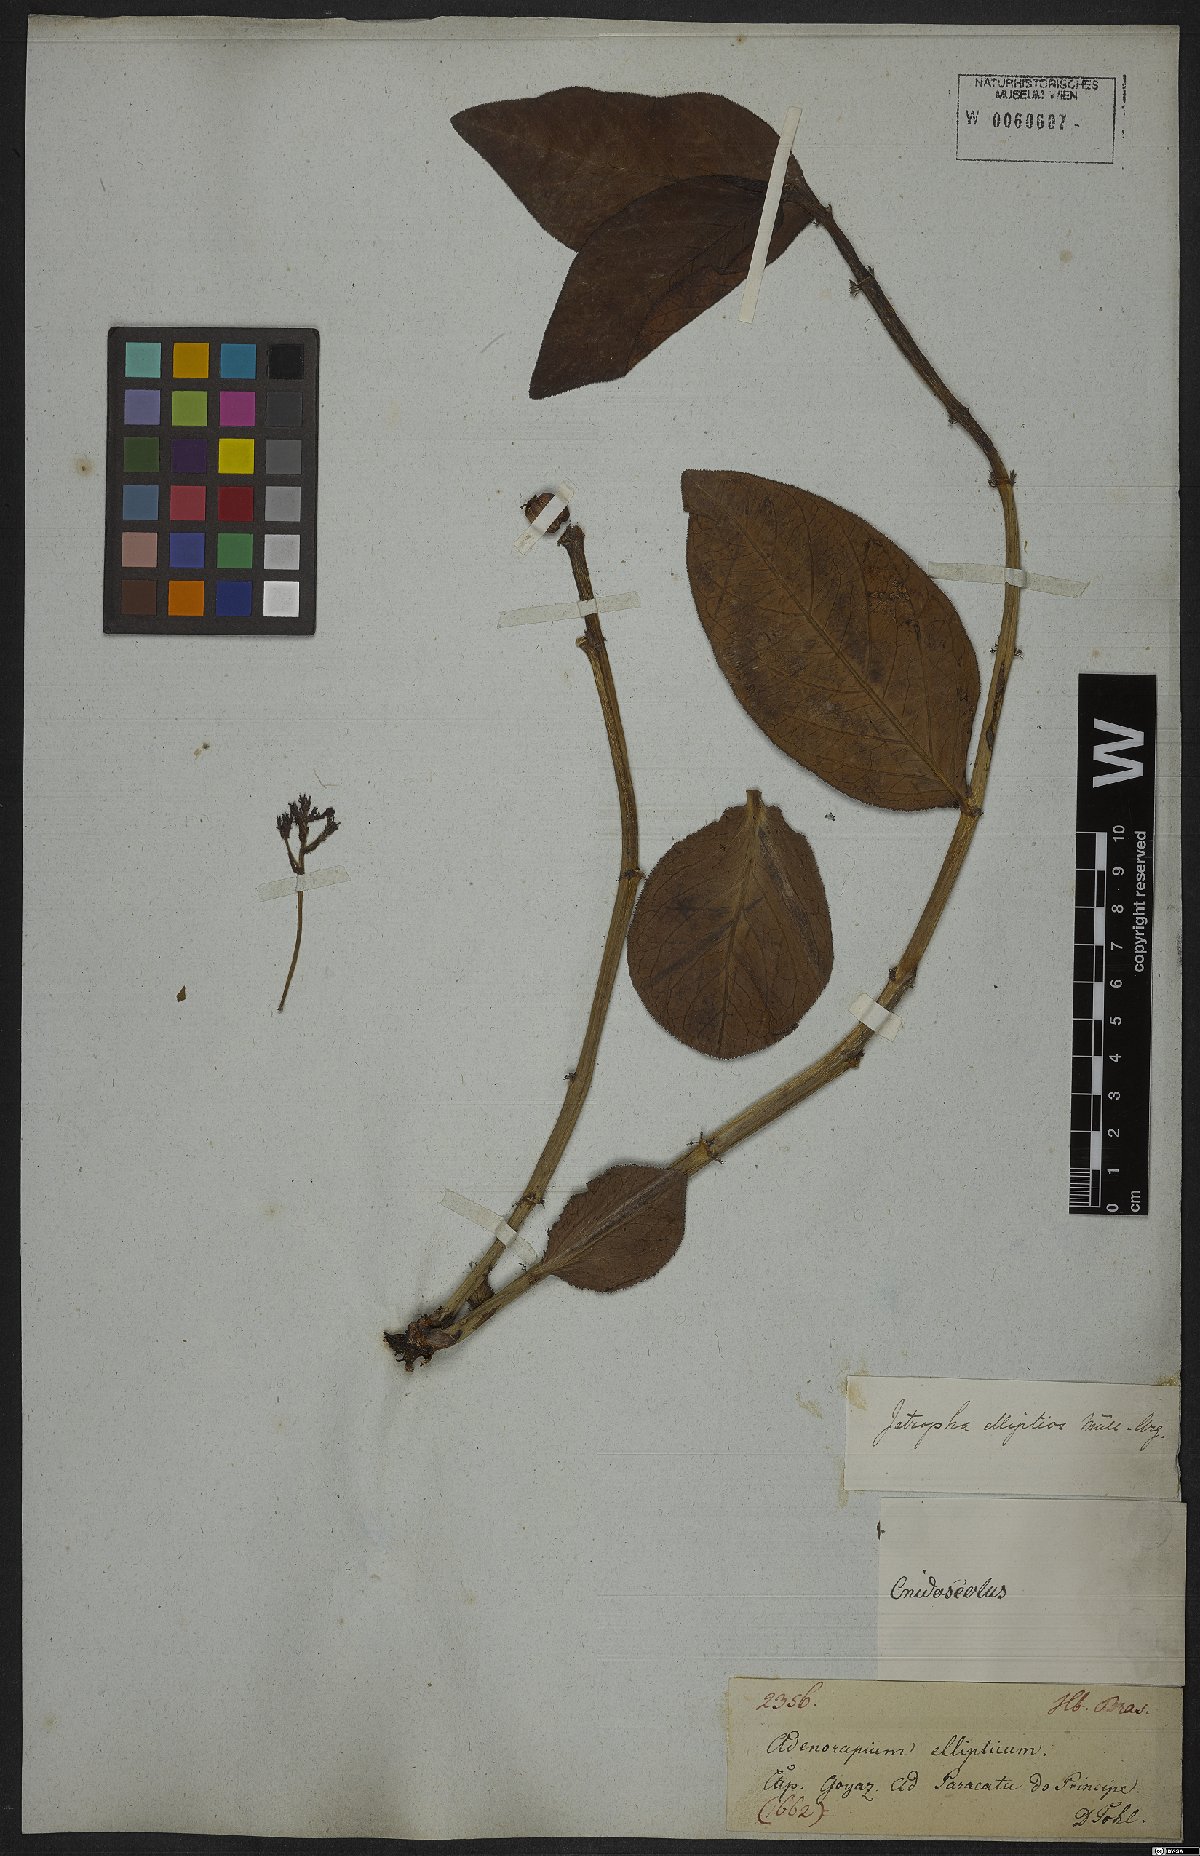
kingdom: Plantae
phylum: Tracheophyta
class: Magnoliopsida
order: Malpighiales
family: Euphorbiaceae
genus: Jatropha
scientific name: Jatropha elliptica
